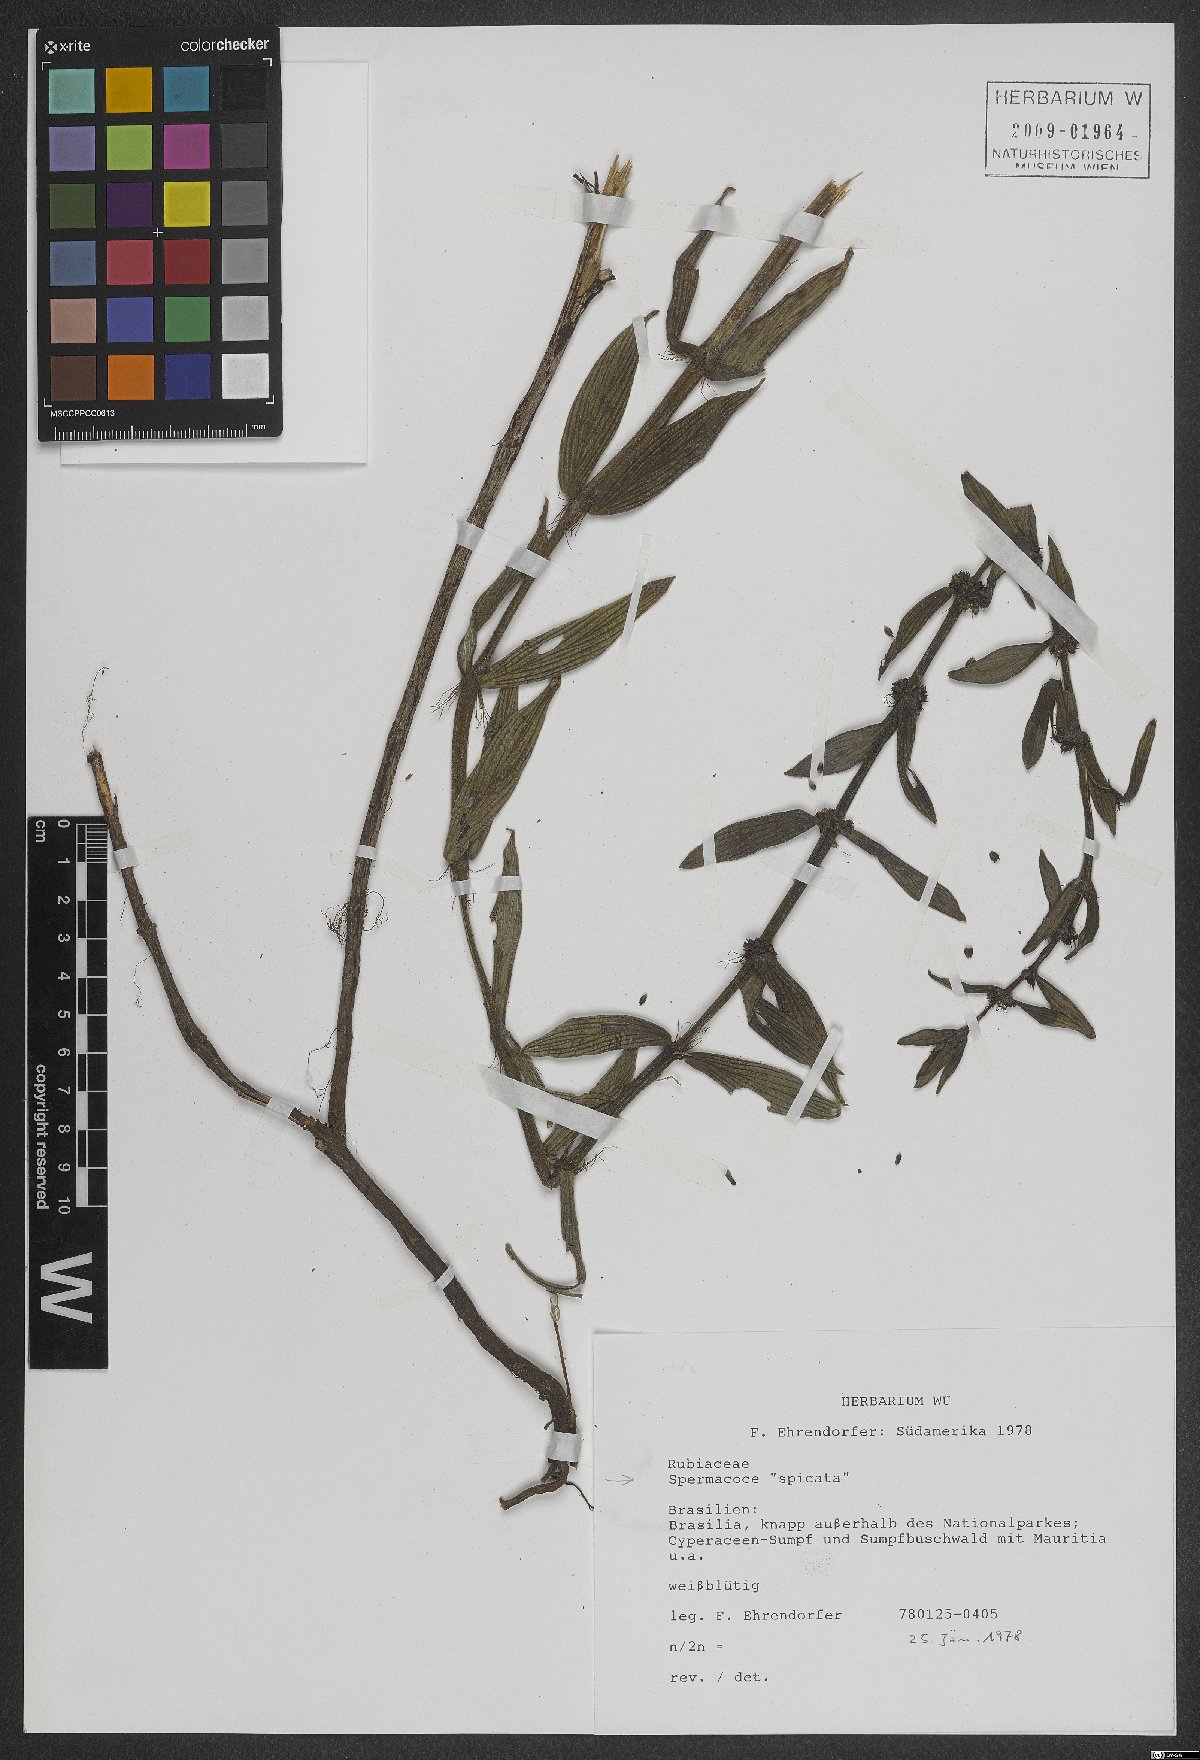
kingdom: Plantae
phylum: Tracheophyta
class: Magnoliopsida
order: Gentianales
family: Rubiaceae
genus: Galianthe
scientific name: Galianthe spicata
